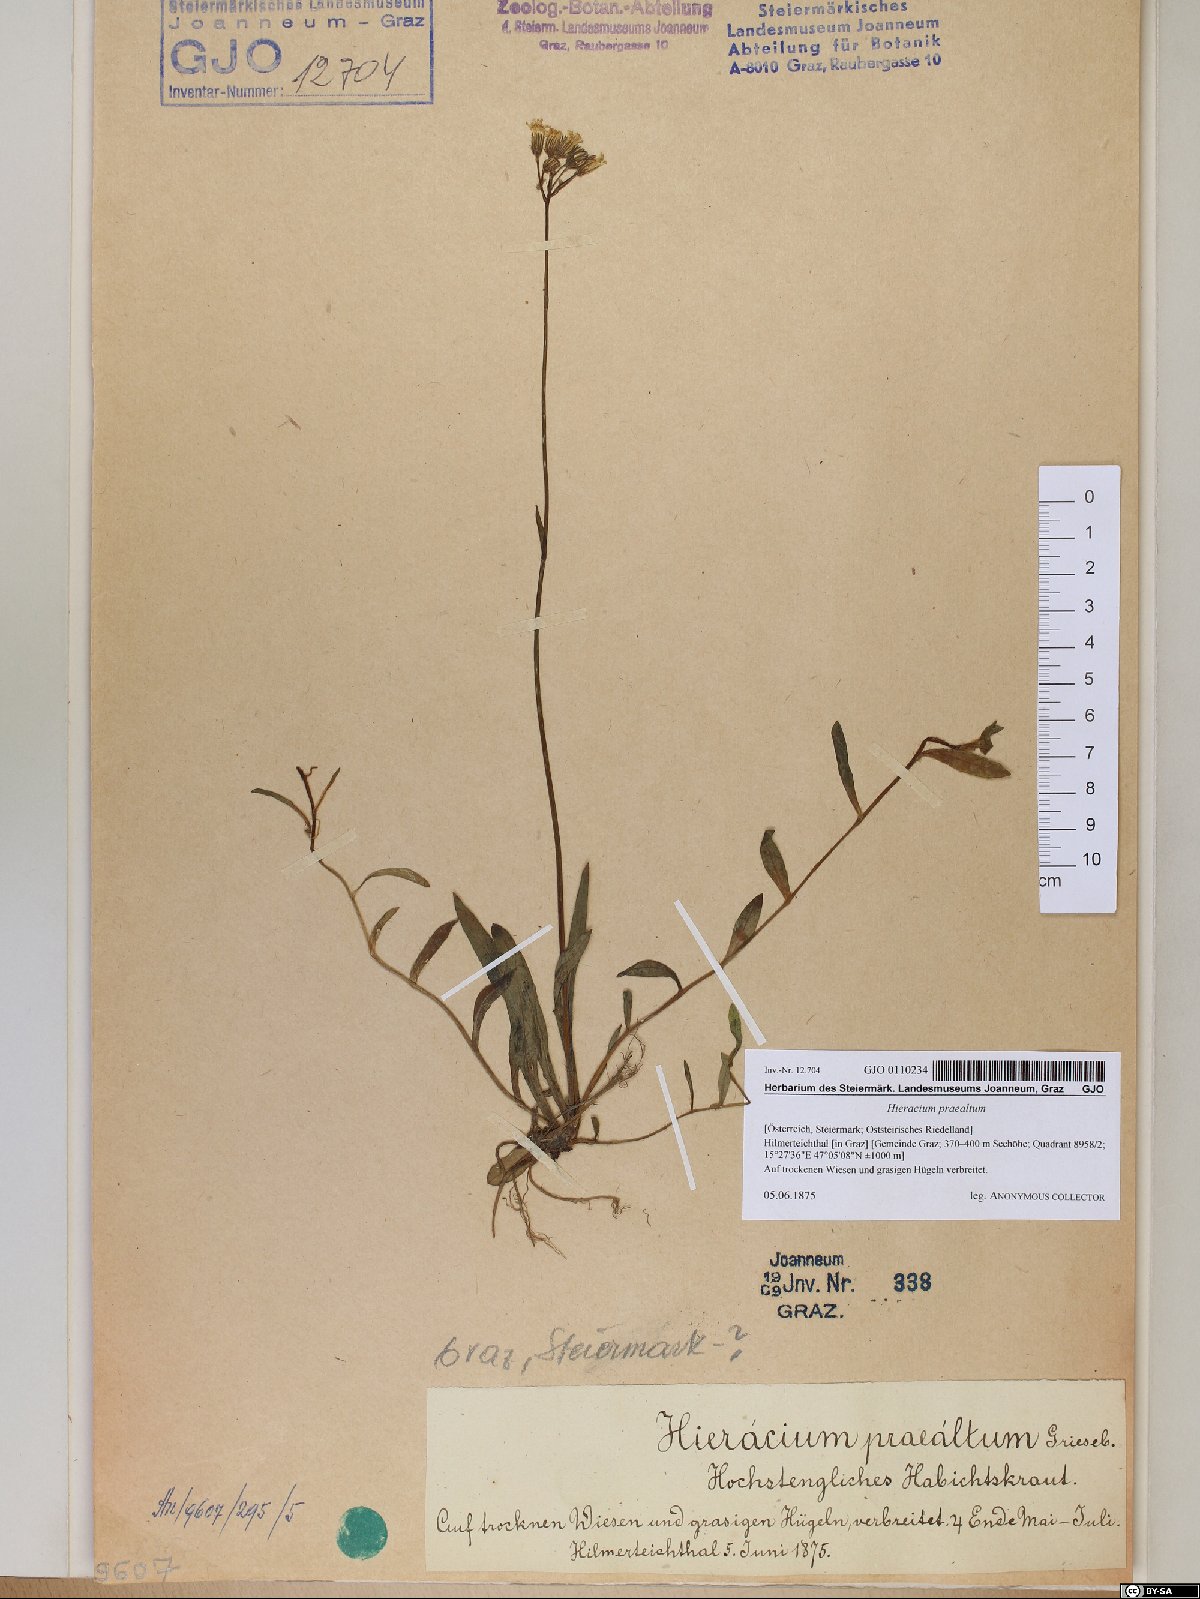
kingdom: Plantae
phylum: Tracheophyta
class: Magnoliopsida
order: Asterales
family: Asteraceae
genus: Pilosella
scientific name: Pilosella piloselloides
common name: Glaucous king-devil
